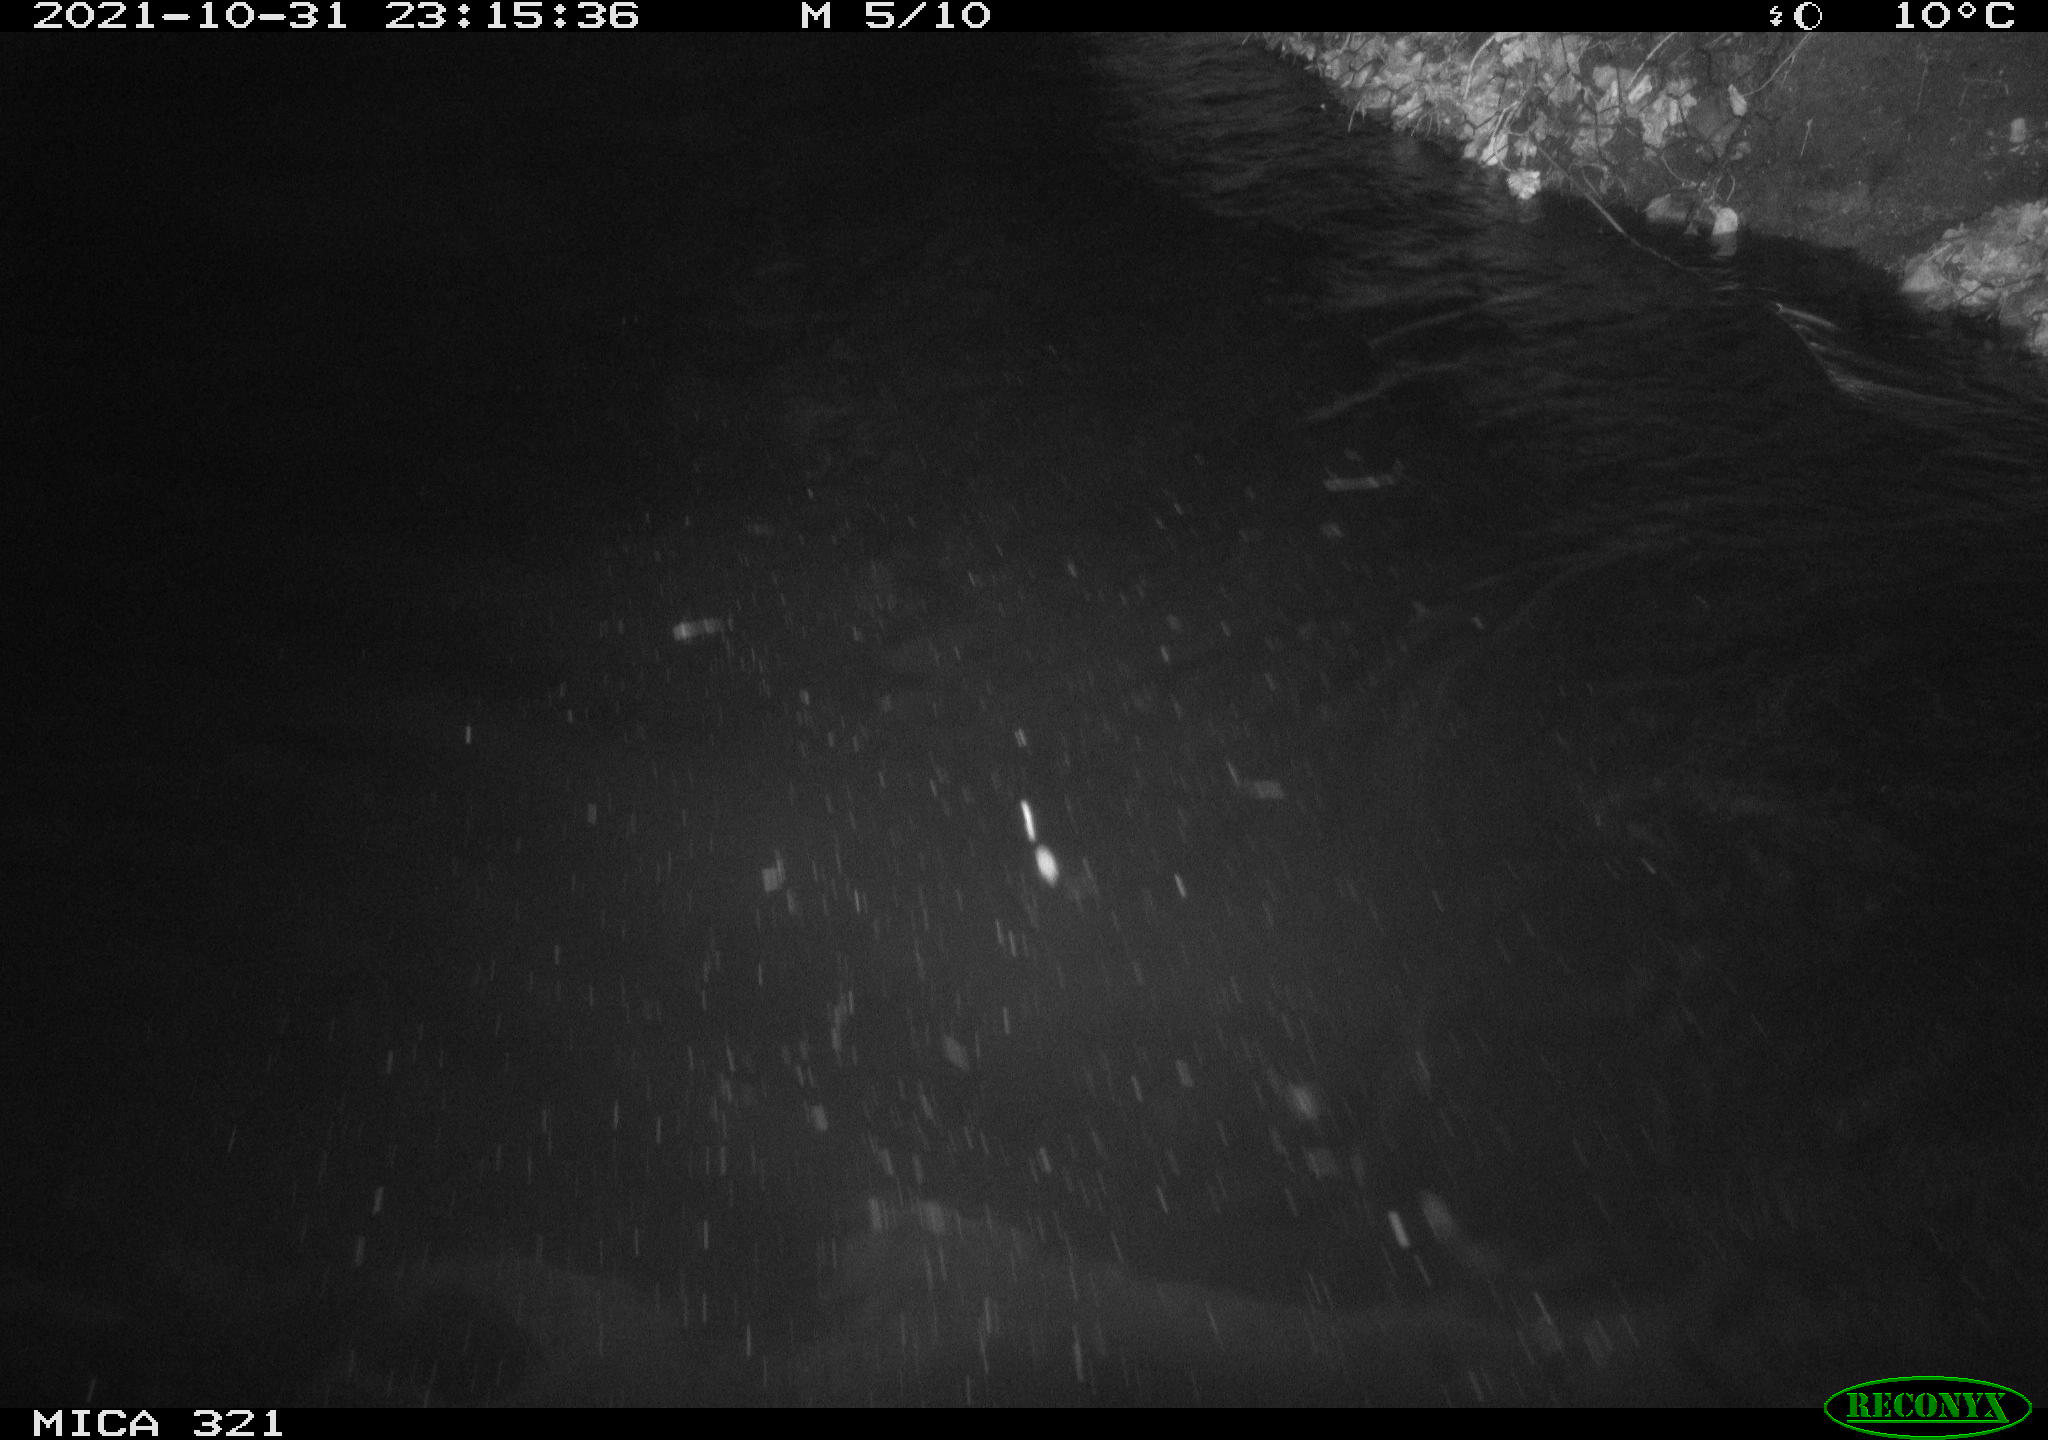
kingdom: Animalia
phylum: Chordata
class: Mammalia
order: Rodentia
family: Muridae
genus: Rattus
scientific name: Rattus norvegicus
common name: Brown rat
